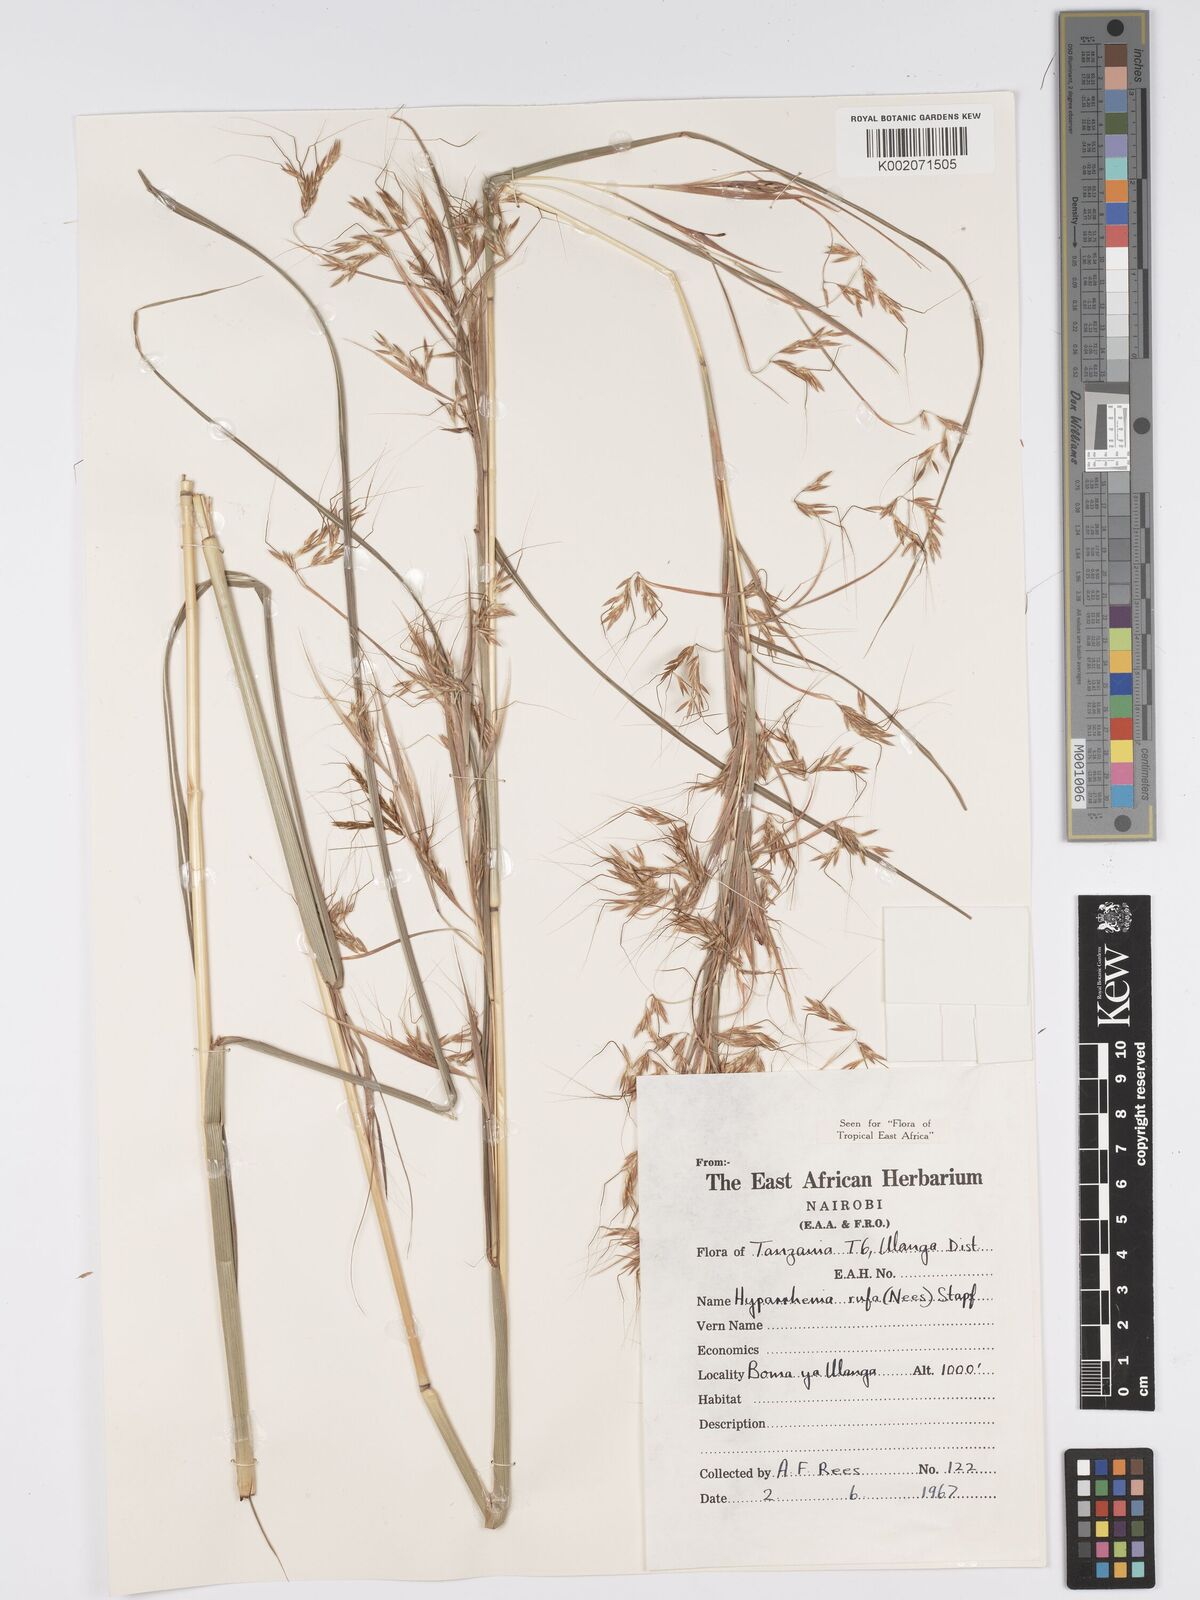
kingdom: Plantae
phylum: Tracheophyta
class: Liliopsida
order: Poales
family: Poaceae
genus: Hyparrhenia
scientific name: Hyparrhenia rufa
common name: Jaraguagrass
